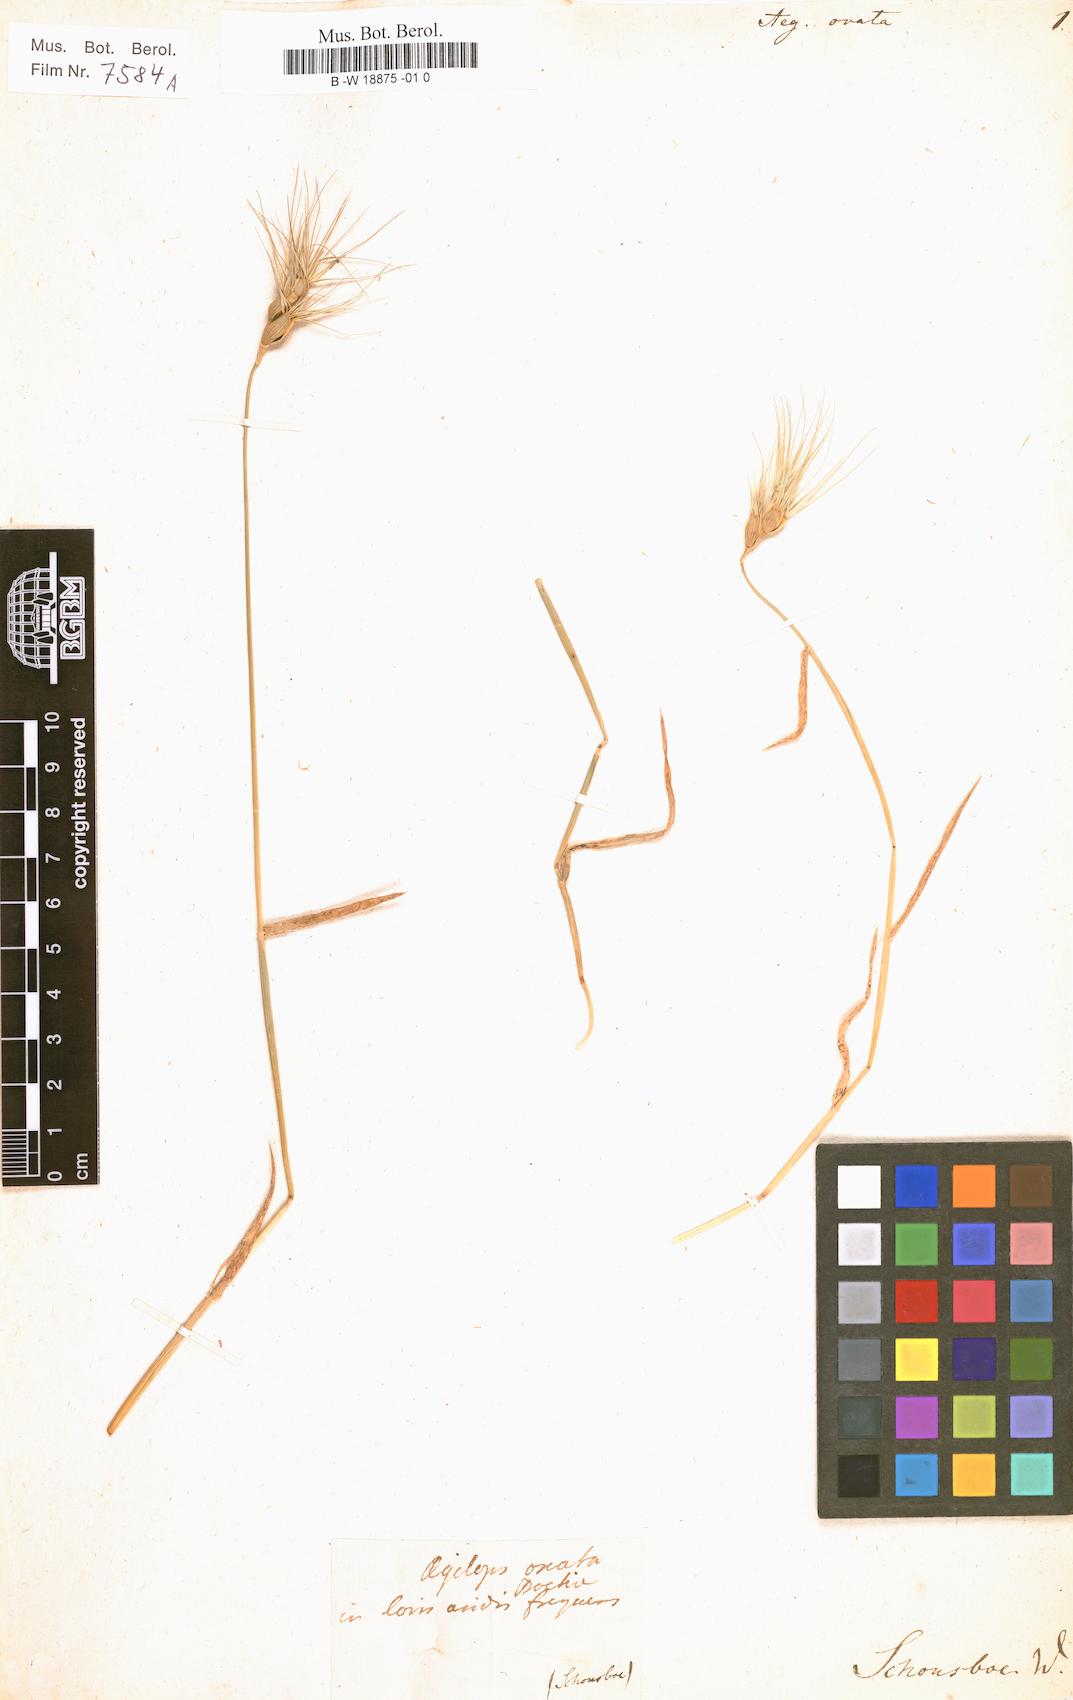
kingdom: Plantae
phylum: Tracheophyta
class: Liliopsida
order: Poales
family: Poaceae
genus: Aegilops
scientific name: Aegilops neglecta
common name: Three-awn goat grass
